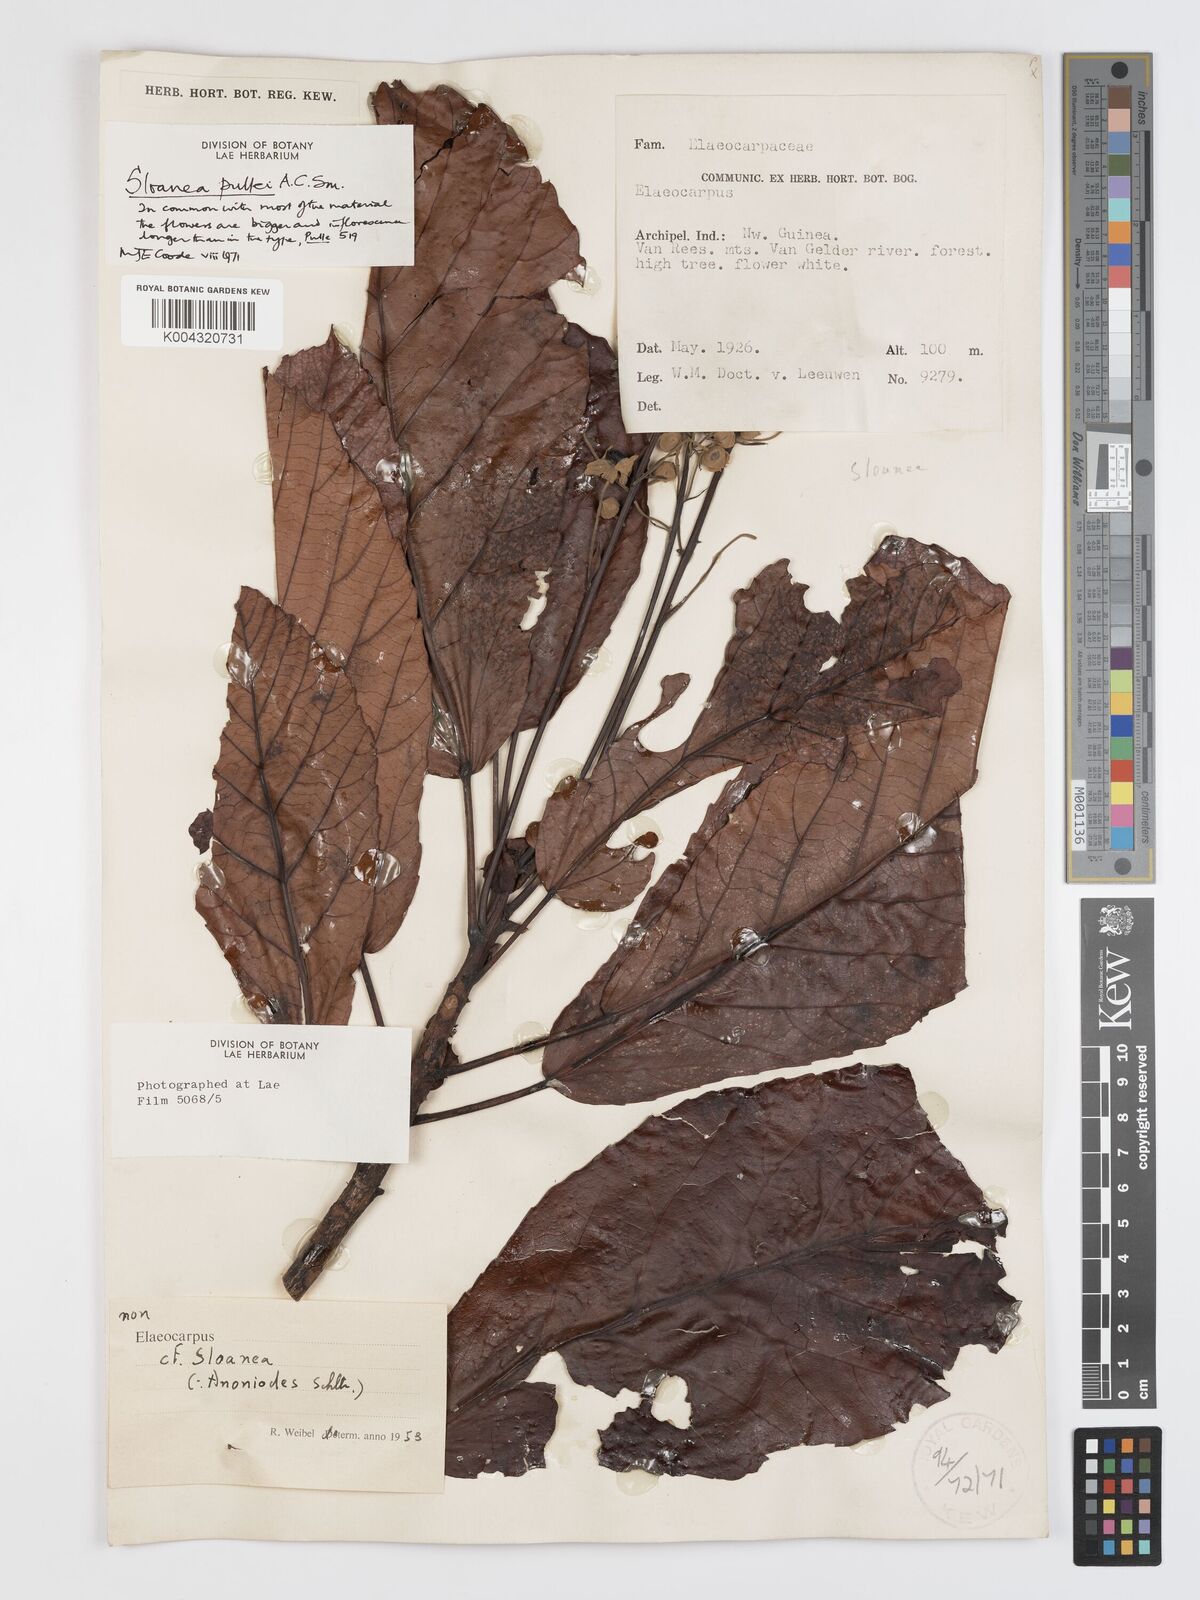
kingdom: Plantae
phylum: Tracheophyta
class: Magnoliopsida
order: Oxalidales
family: Elaeocarpaceae
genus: Sloanea
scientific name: Sloanea pullei
